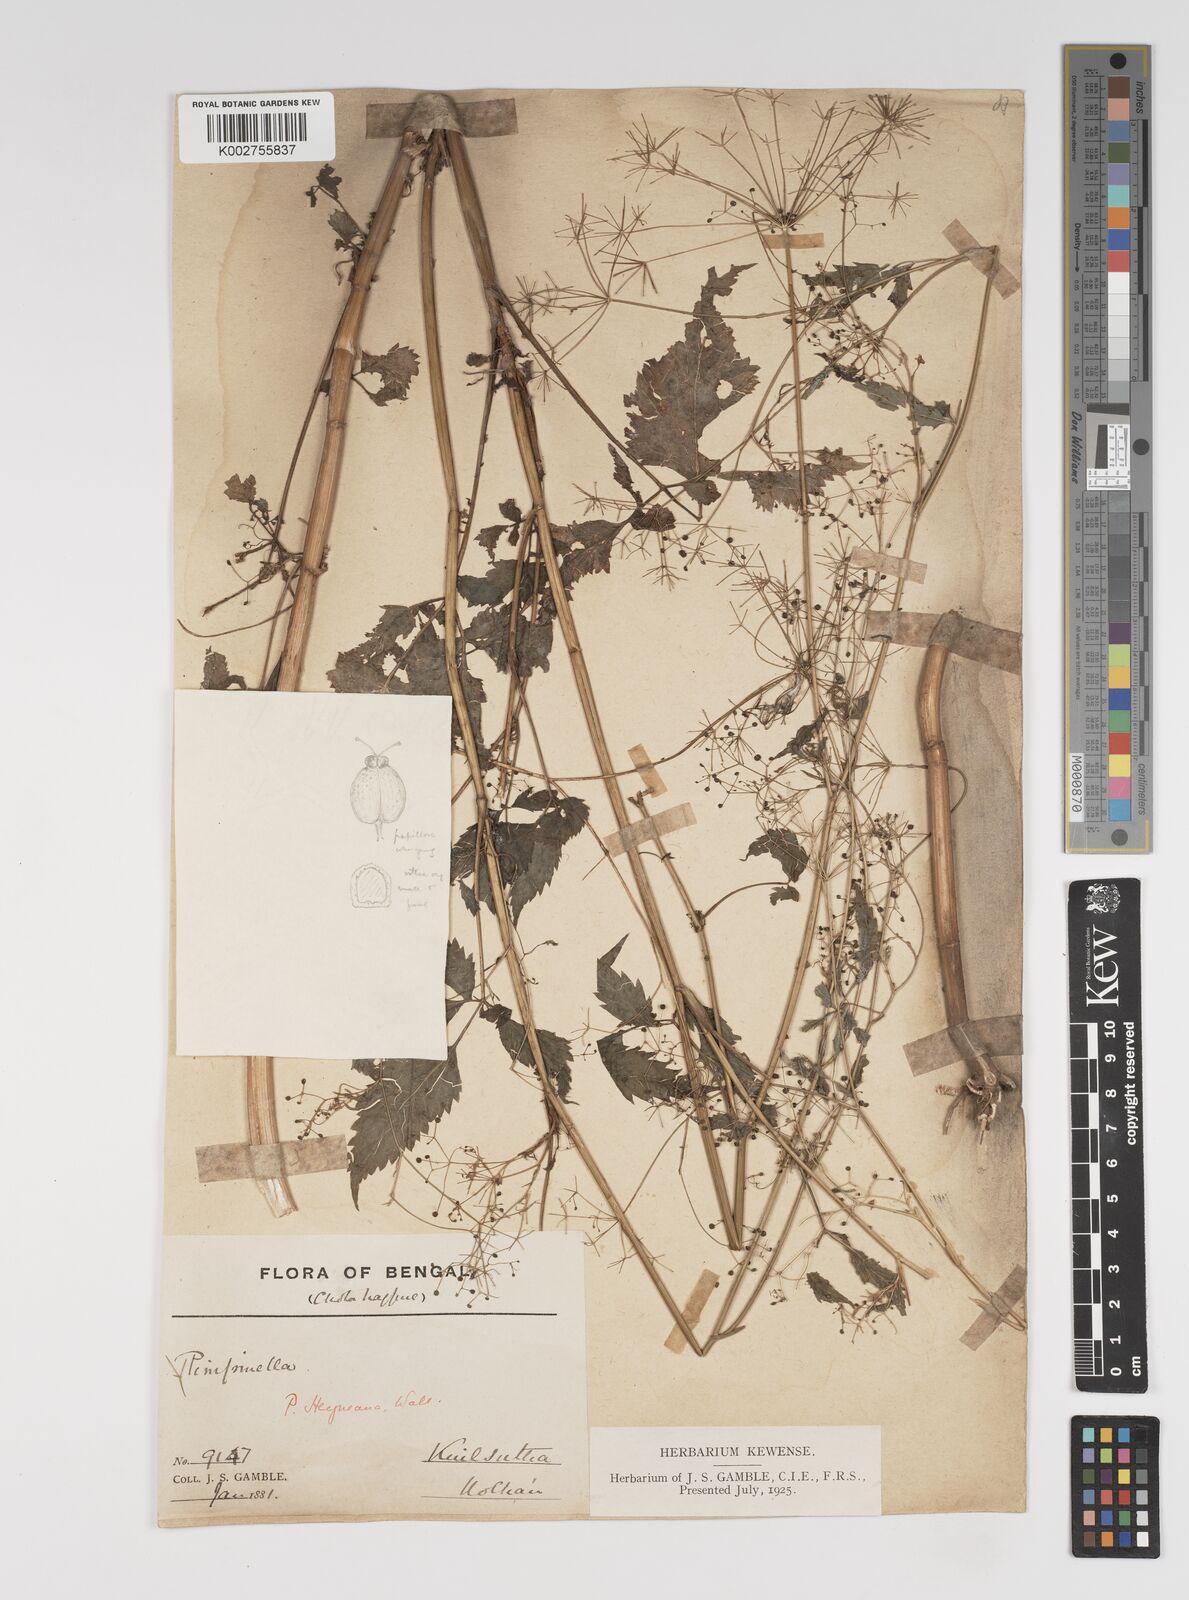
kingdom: Plantae
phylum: Tracheophyta
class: Magnoliopsida
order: Apiales
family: Apiaceae
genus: Pimpinella
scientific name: Pimpinella heyneana
